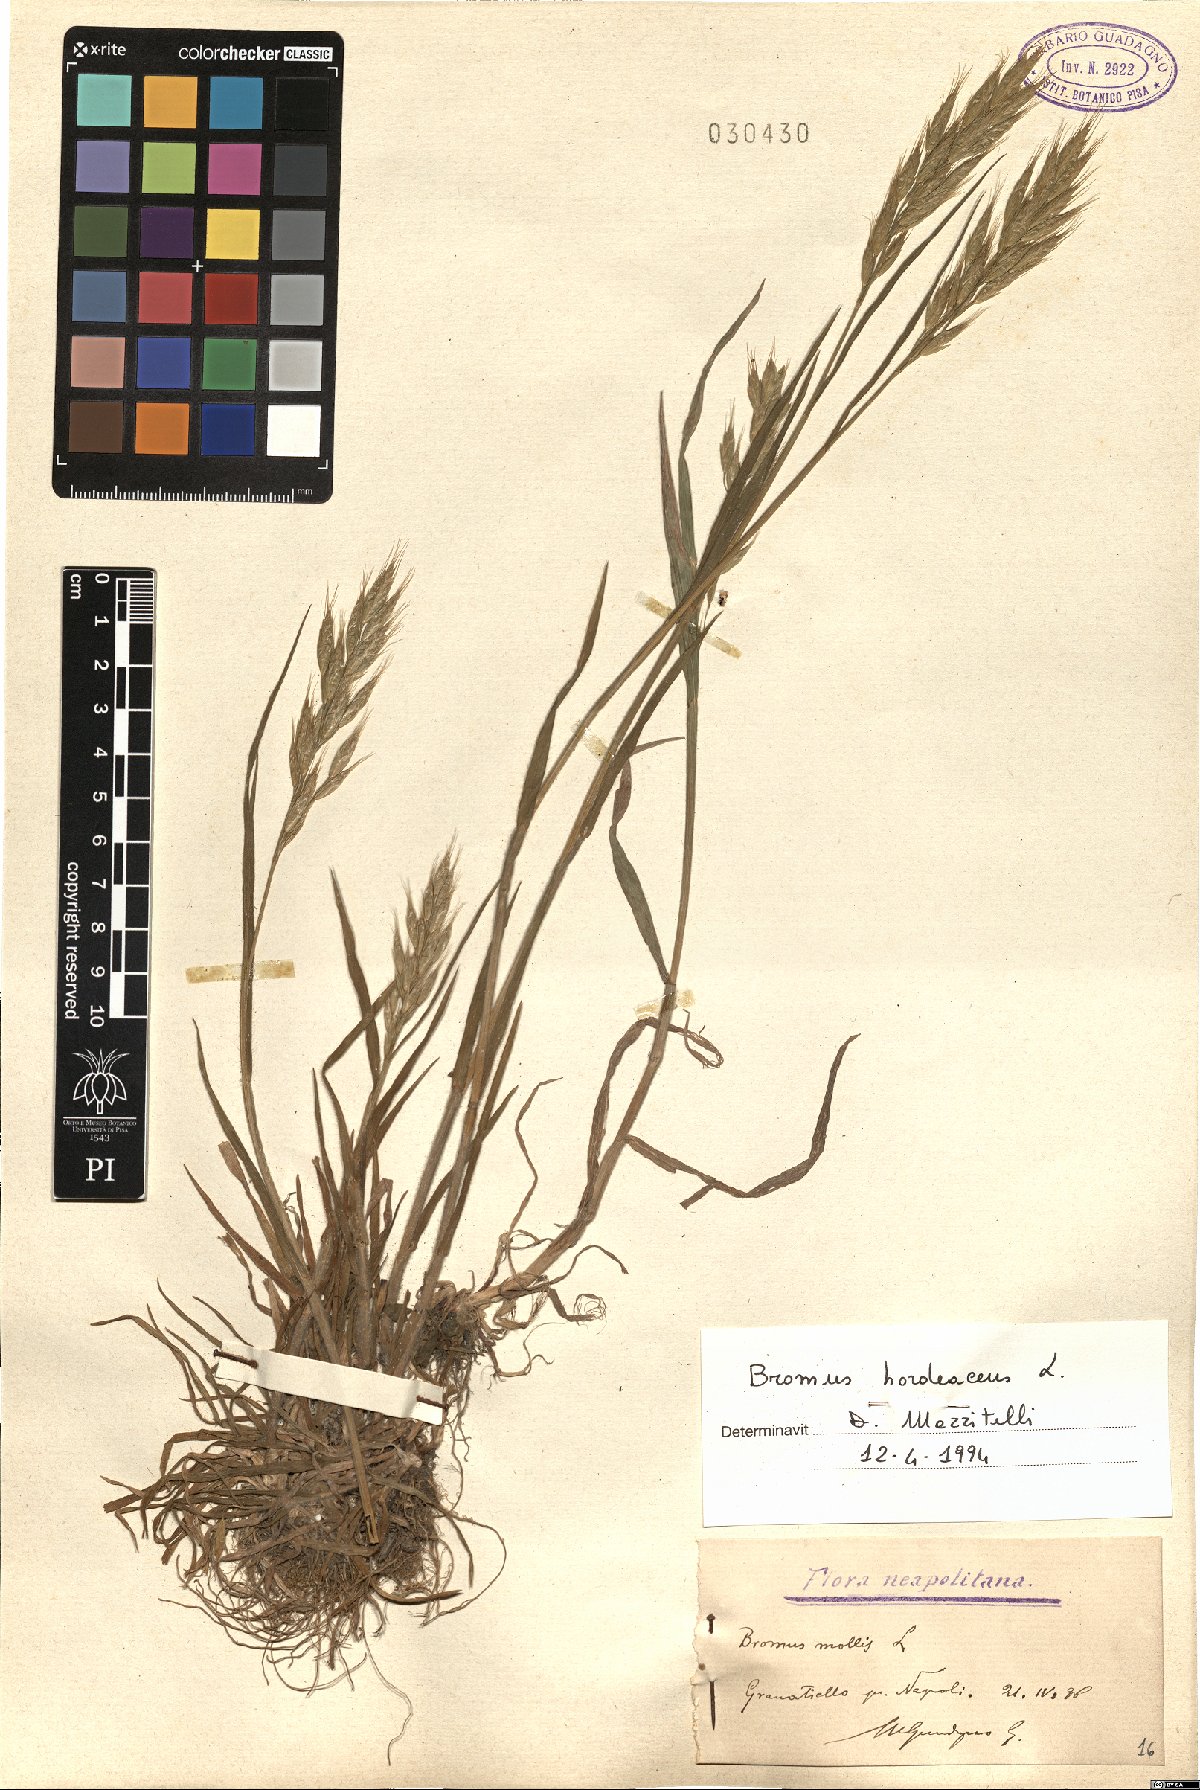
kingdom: Plantae
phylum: Tracheophyta
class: Liliopsida
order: Poales
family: Poaceae
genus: Bromus
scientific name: Bromus hordeaceus
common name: Soft brome
